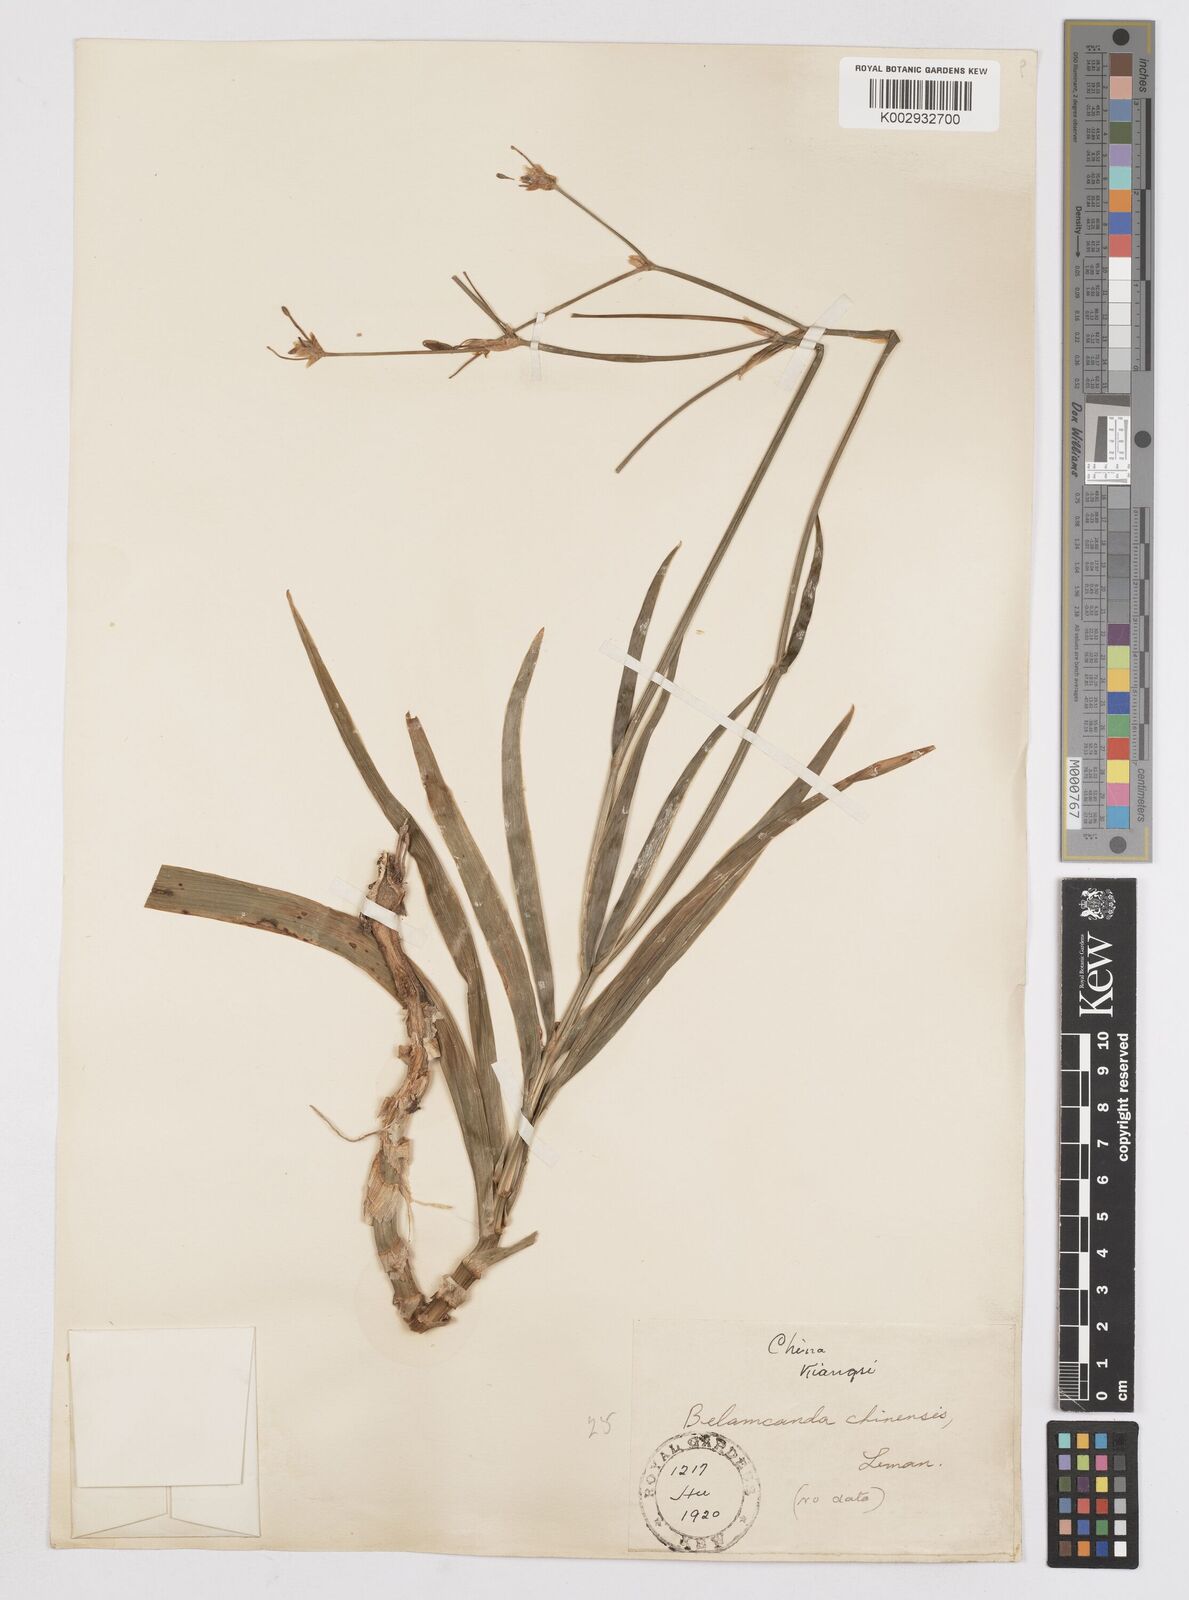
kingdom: Plantae
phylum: Tracheophyta
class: Liliopsida
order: Asparagales
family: Iridaceae
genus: Iris
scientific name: Iris
